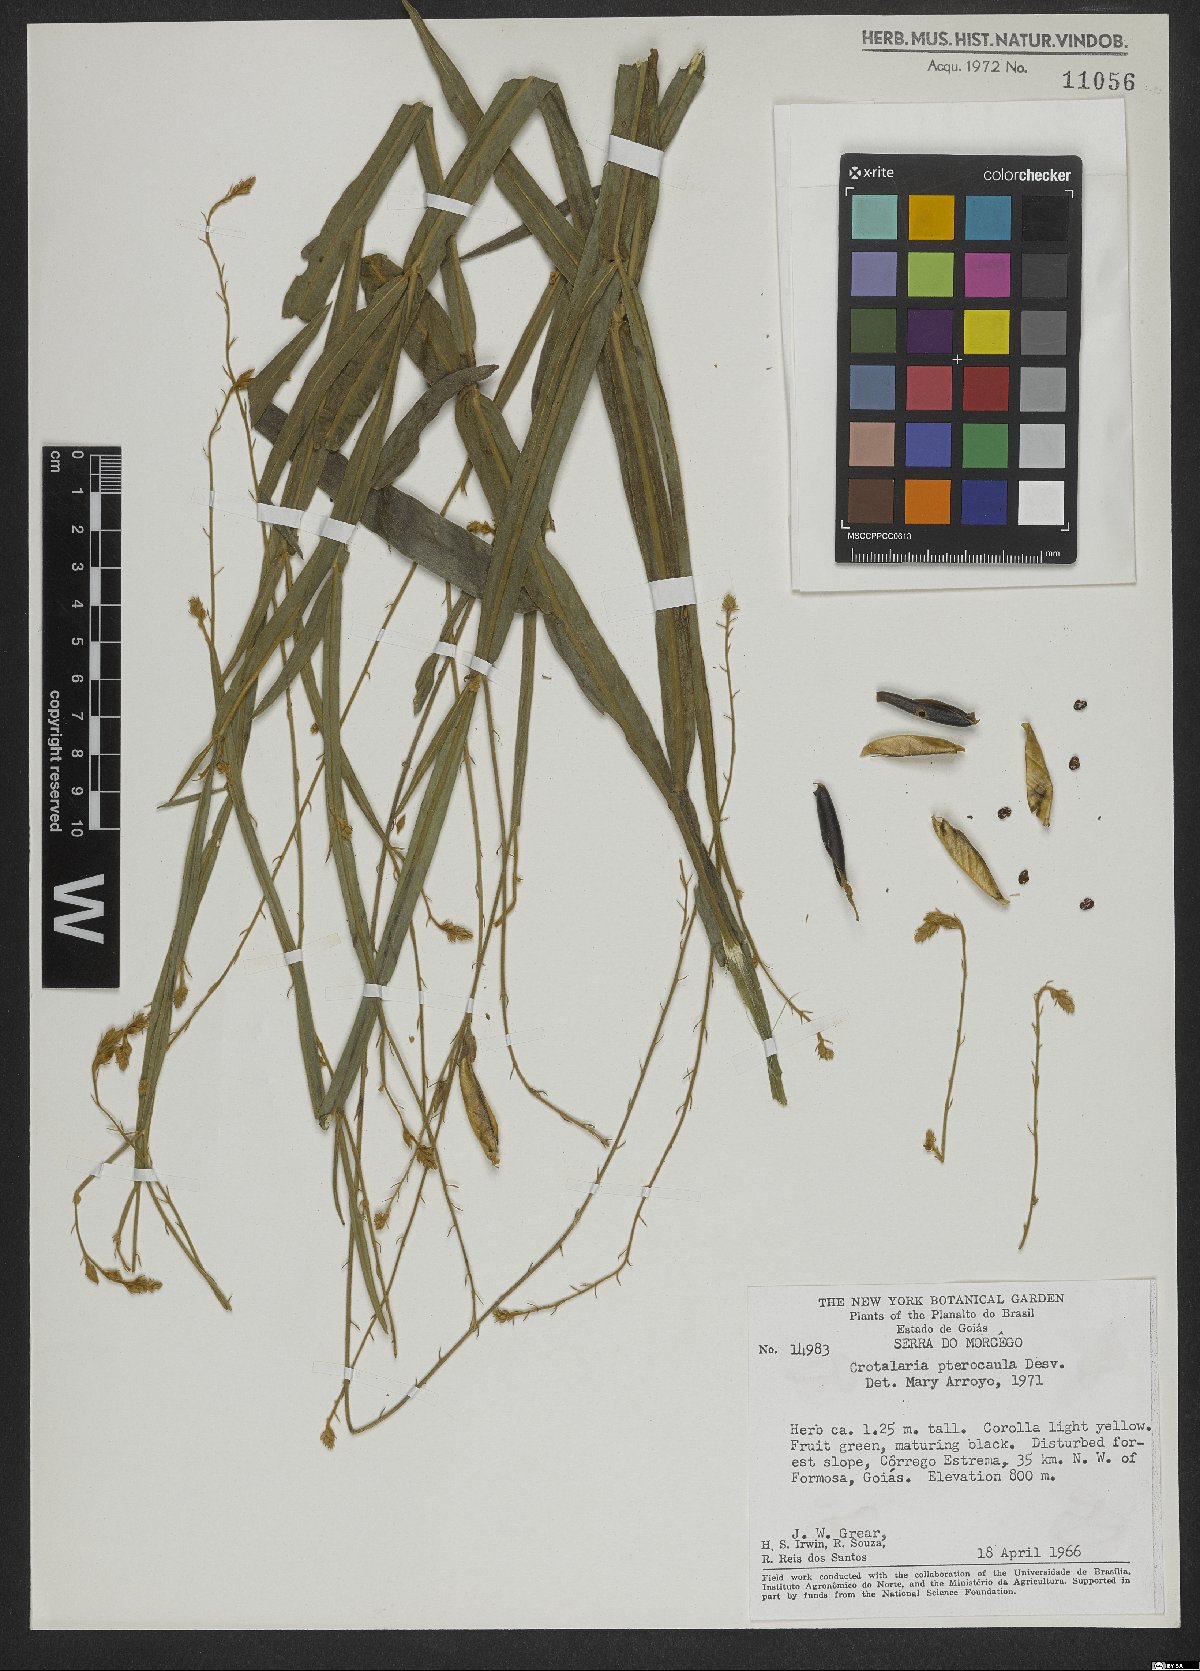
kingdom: Plantae
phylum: Tracheophyta
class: Magnoliopsida
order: Fabales
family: Fabaceae
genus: Crotalaria
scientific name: Crotalaria pilosa
